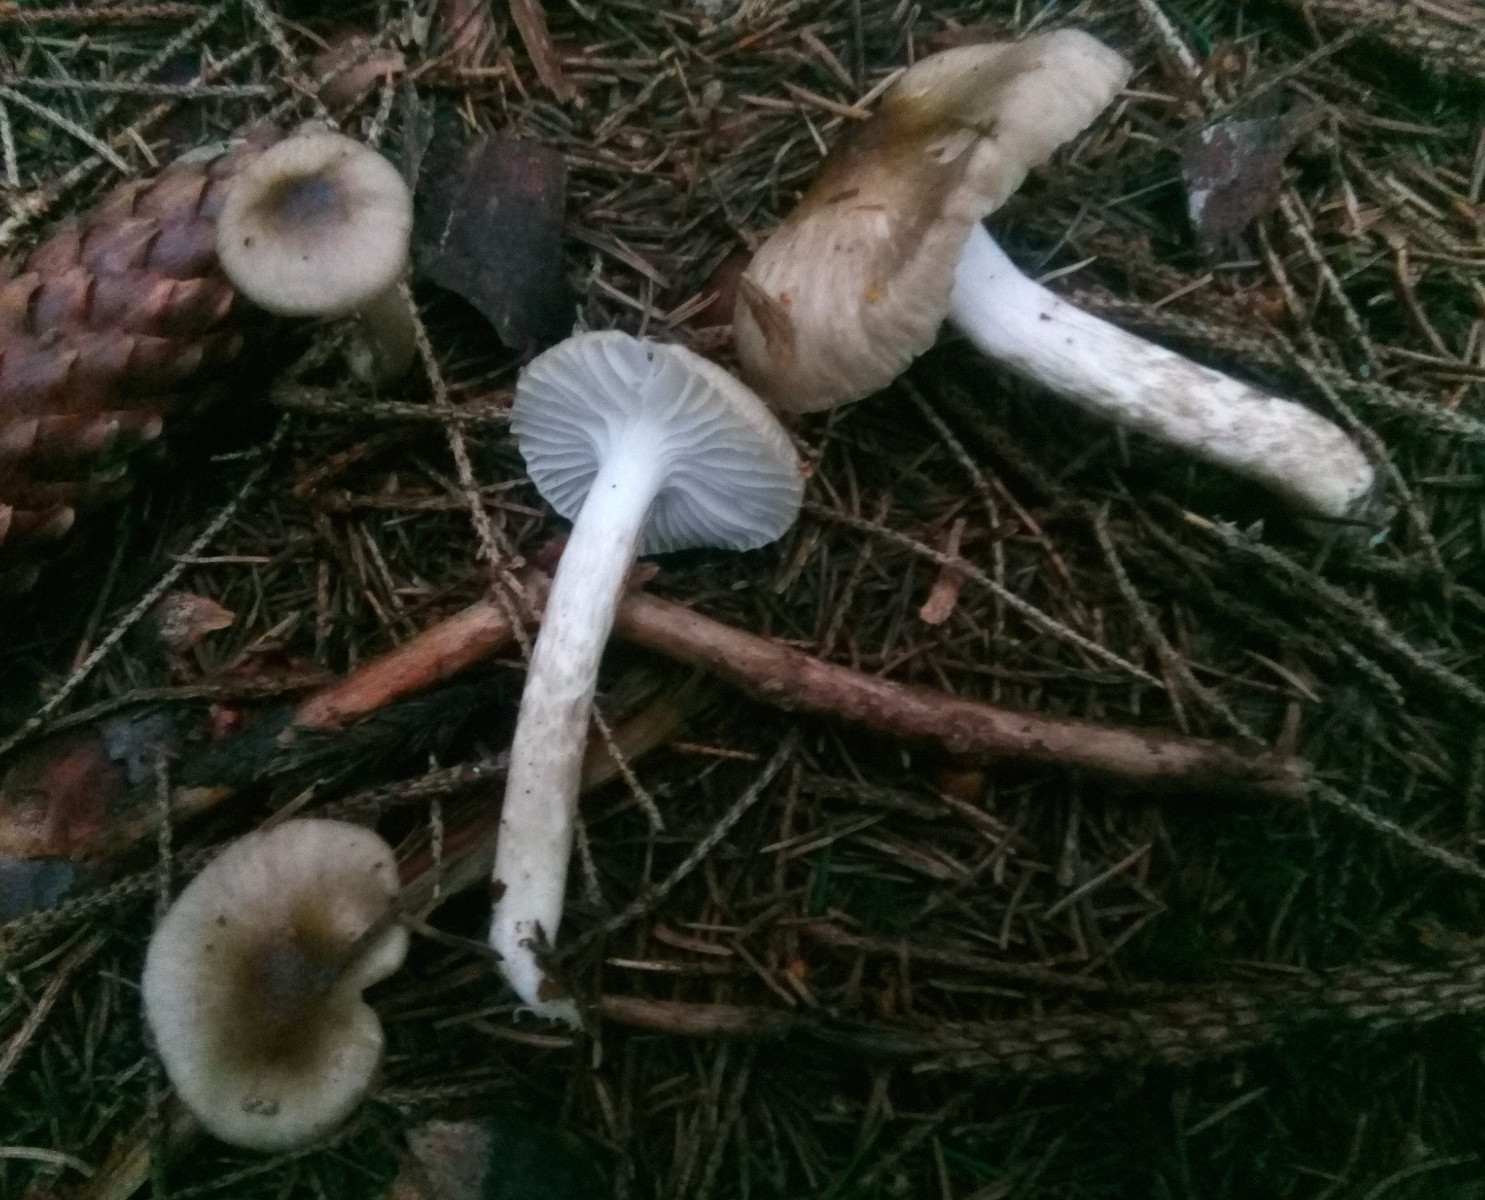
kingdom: Fungi
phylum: Basidiomycota
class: Agaricomycetes
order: Agaricales
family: Hygrophoraceae
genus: Hygrophorus
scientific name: Hygrophorus olivaceoalbus
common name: hvidbrun sneglehat
